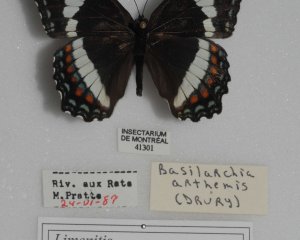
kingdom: Animalia
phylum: Arthropoda
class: Insecta
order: Lepidoptera
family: Nymphalidae
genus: Limenitis
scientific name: Limenitis arthemis
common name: Red-spotted Admiral
